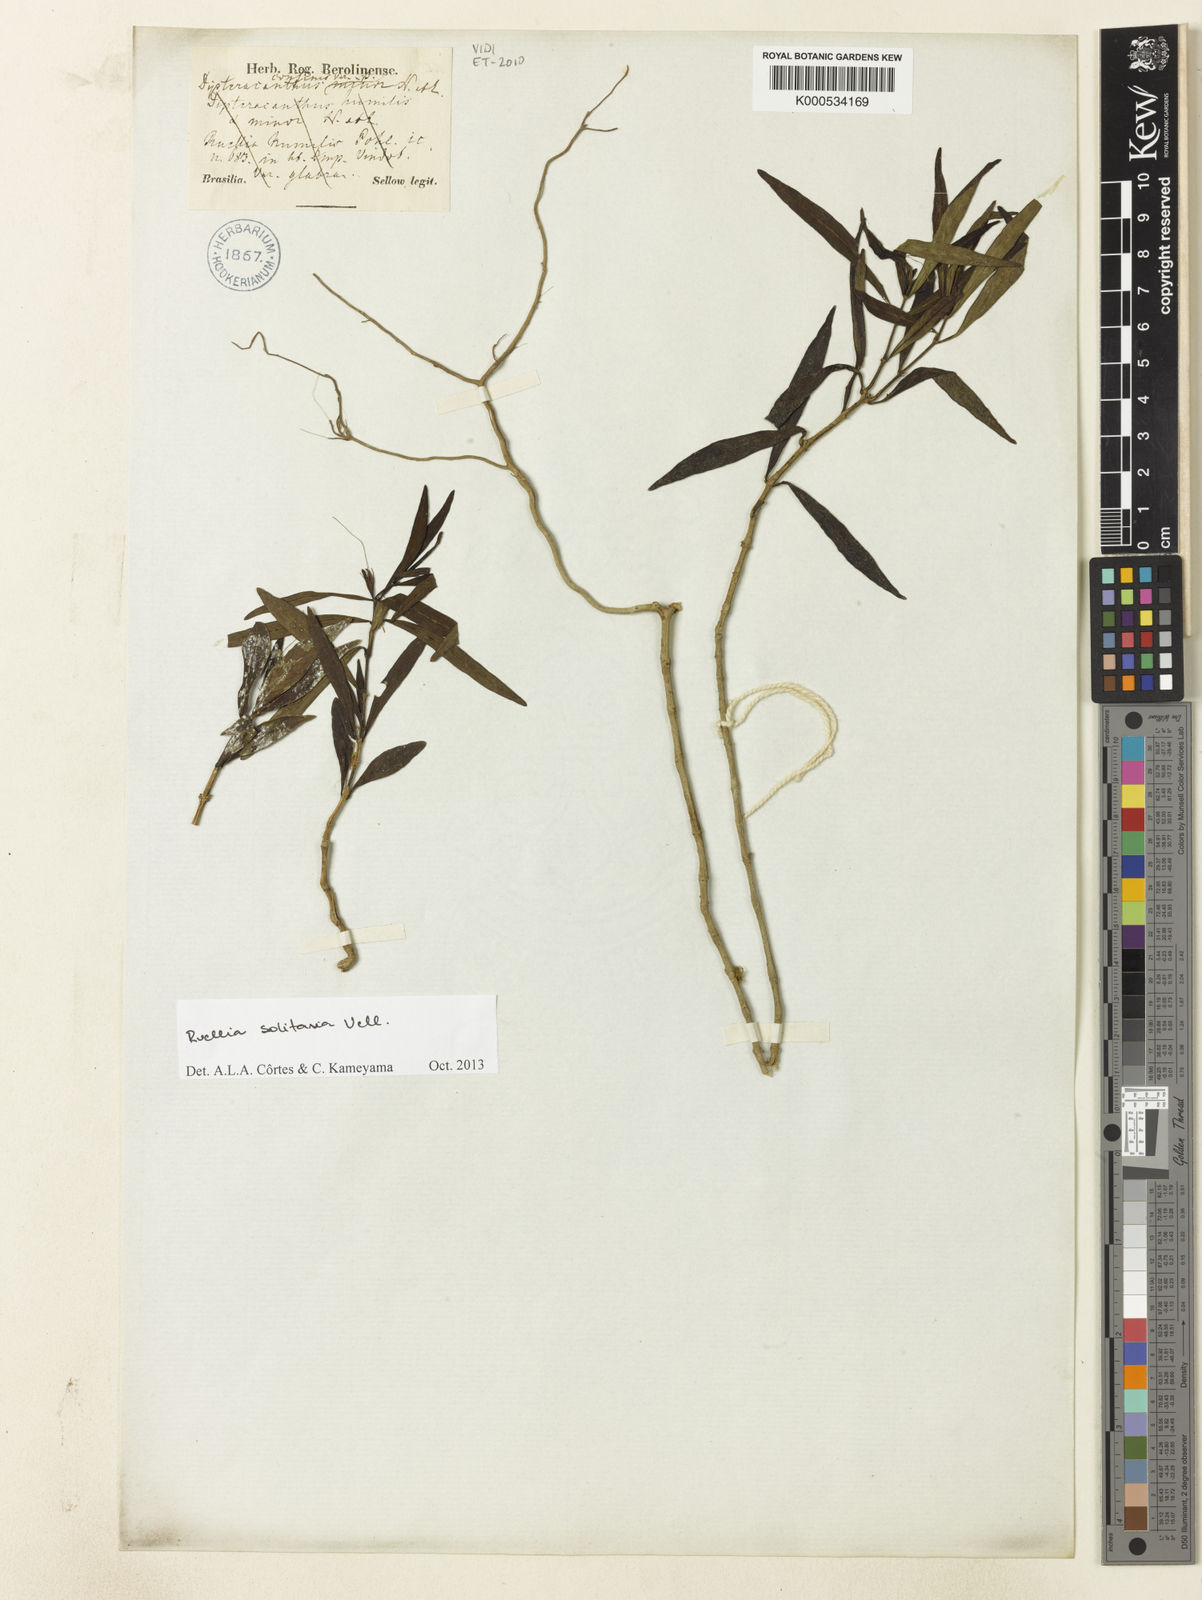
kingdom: Plantae
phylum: Tracheophyta
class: Magnoliopsida
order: Lamiales
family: Acanthaceae
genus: Ruellia
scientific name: Ruellia solitaria
